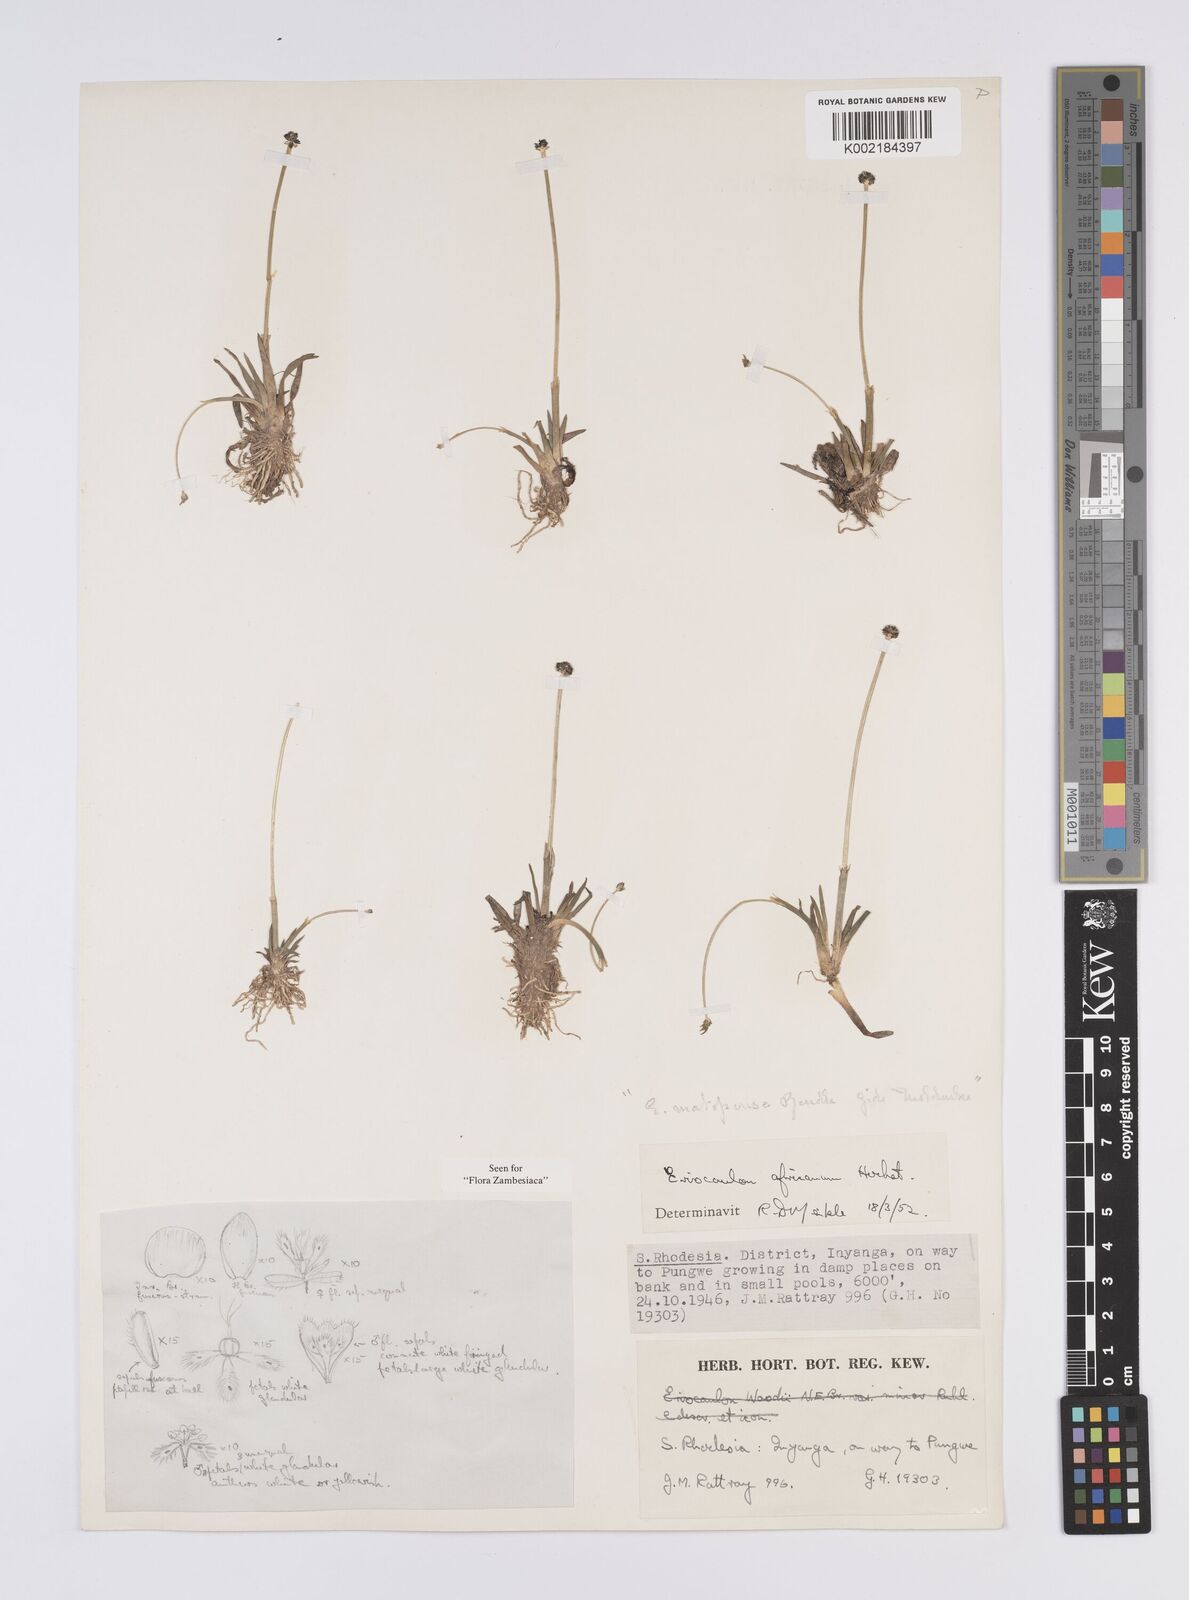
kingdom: Plantae
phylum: Tracheophyta
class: Liliopsida
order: Poales
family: Eriocaulaceae
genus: Eriocaulon
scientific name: Eriocaulon africanum
